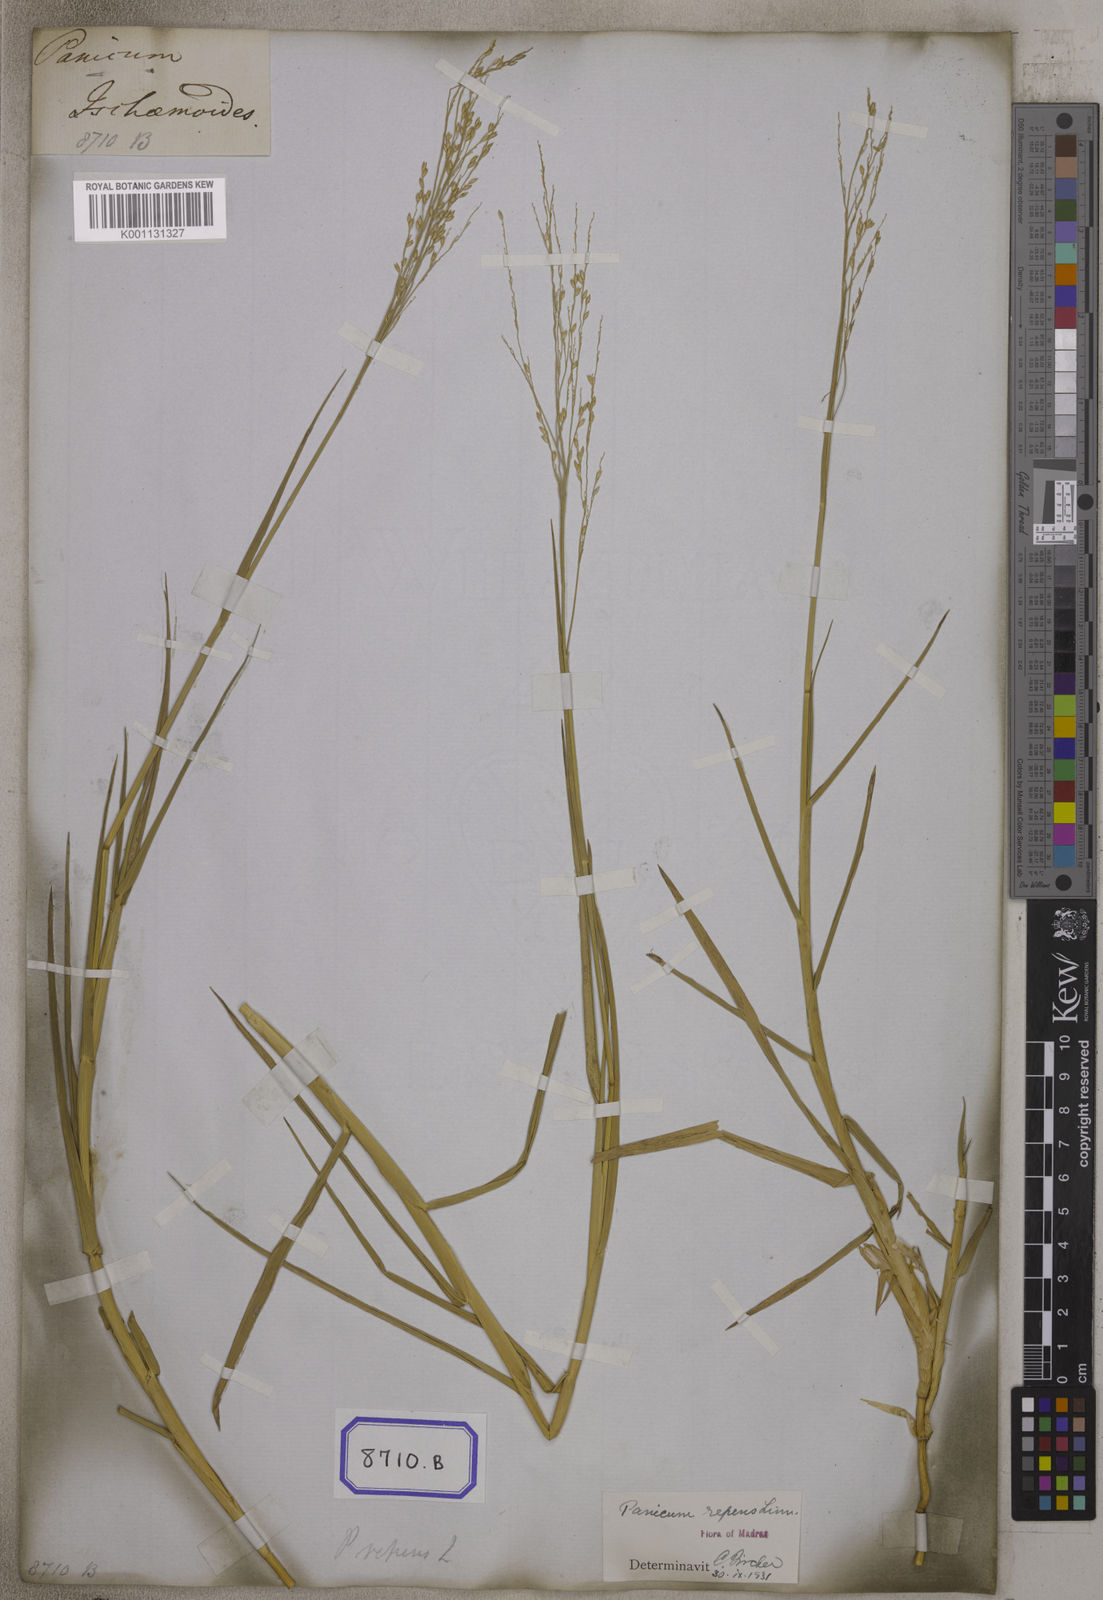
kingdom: Plantae
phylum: Tracheophyta
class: Liliopsida
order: Poales
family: Poaceae
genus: Panicum
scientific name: Panicum repens
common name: Torpedo grass
